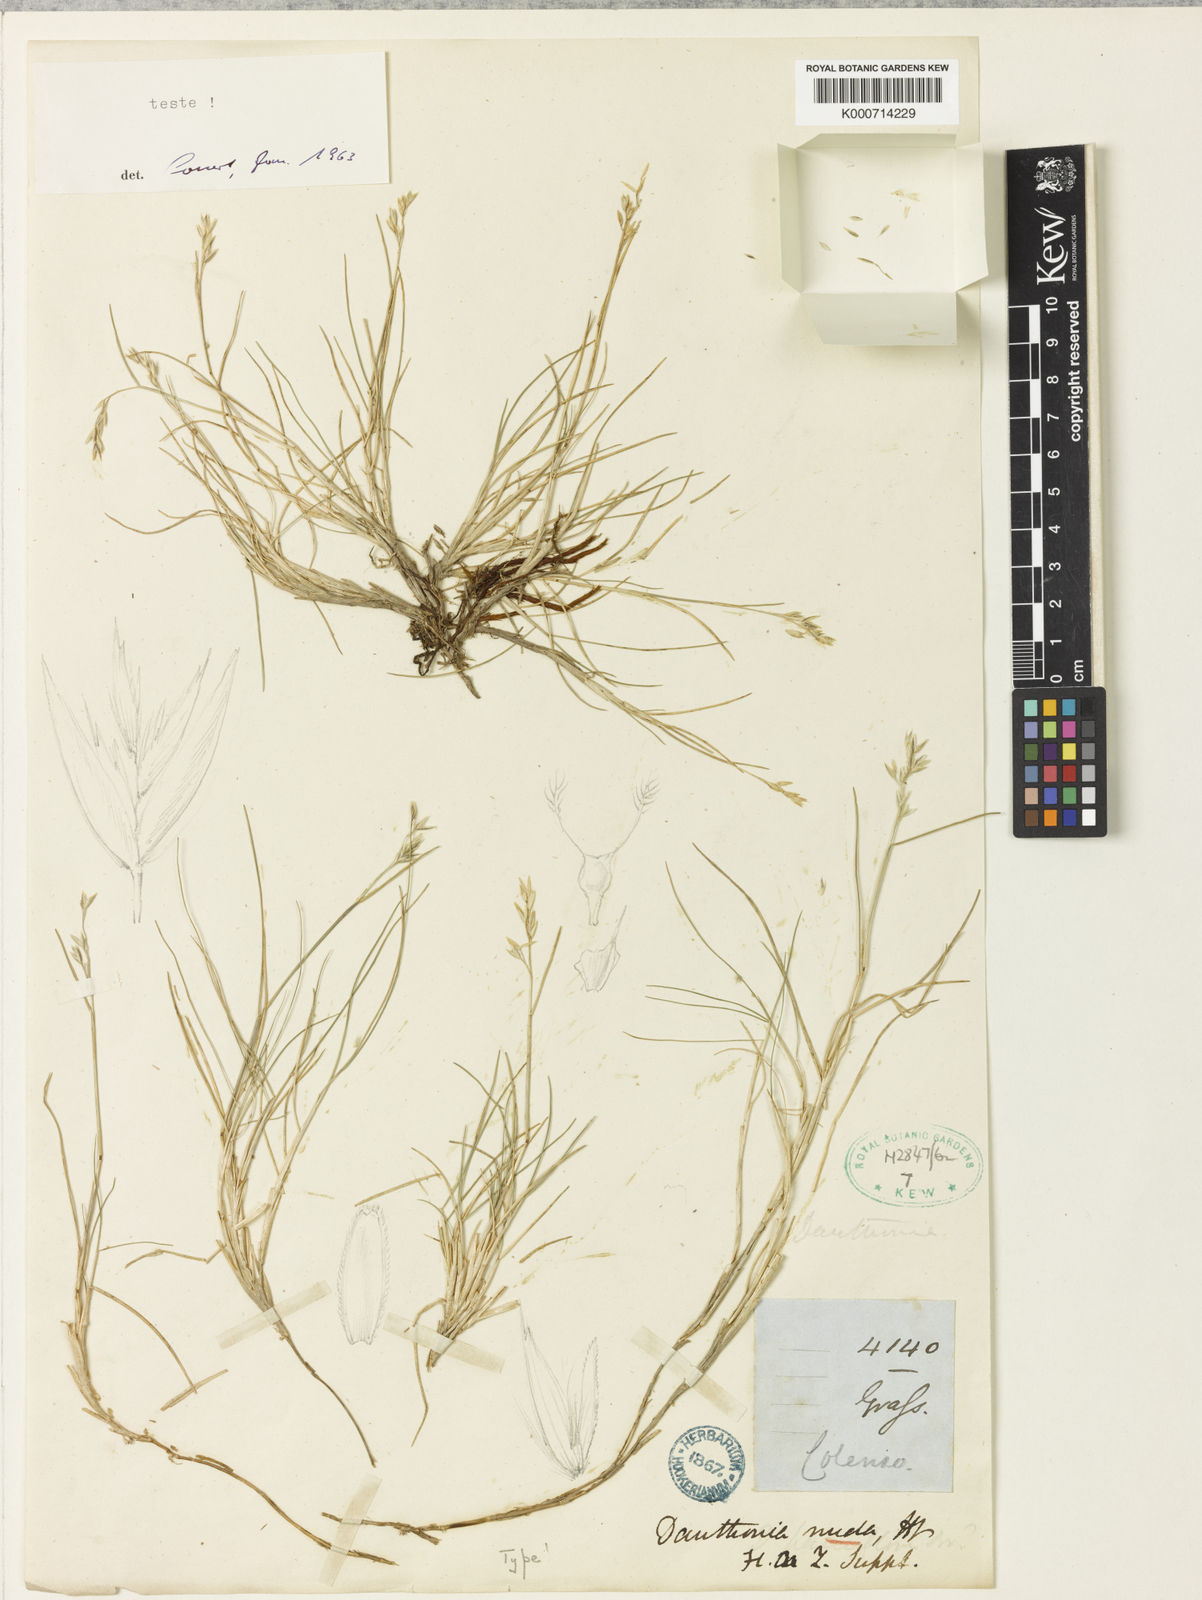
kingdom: Plantae
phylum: Tracheophyta
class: Liliopsida
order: Poales
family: Poaceae
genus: Rytidosperma
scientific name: Rytidosperma nudum
